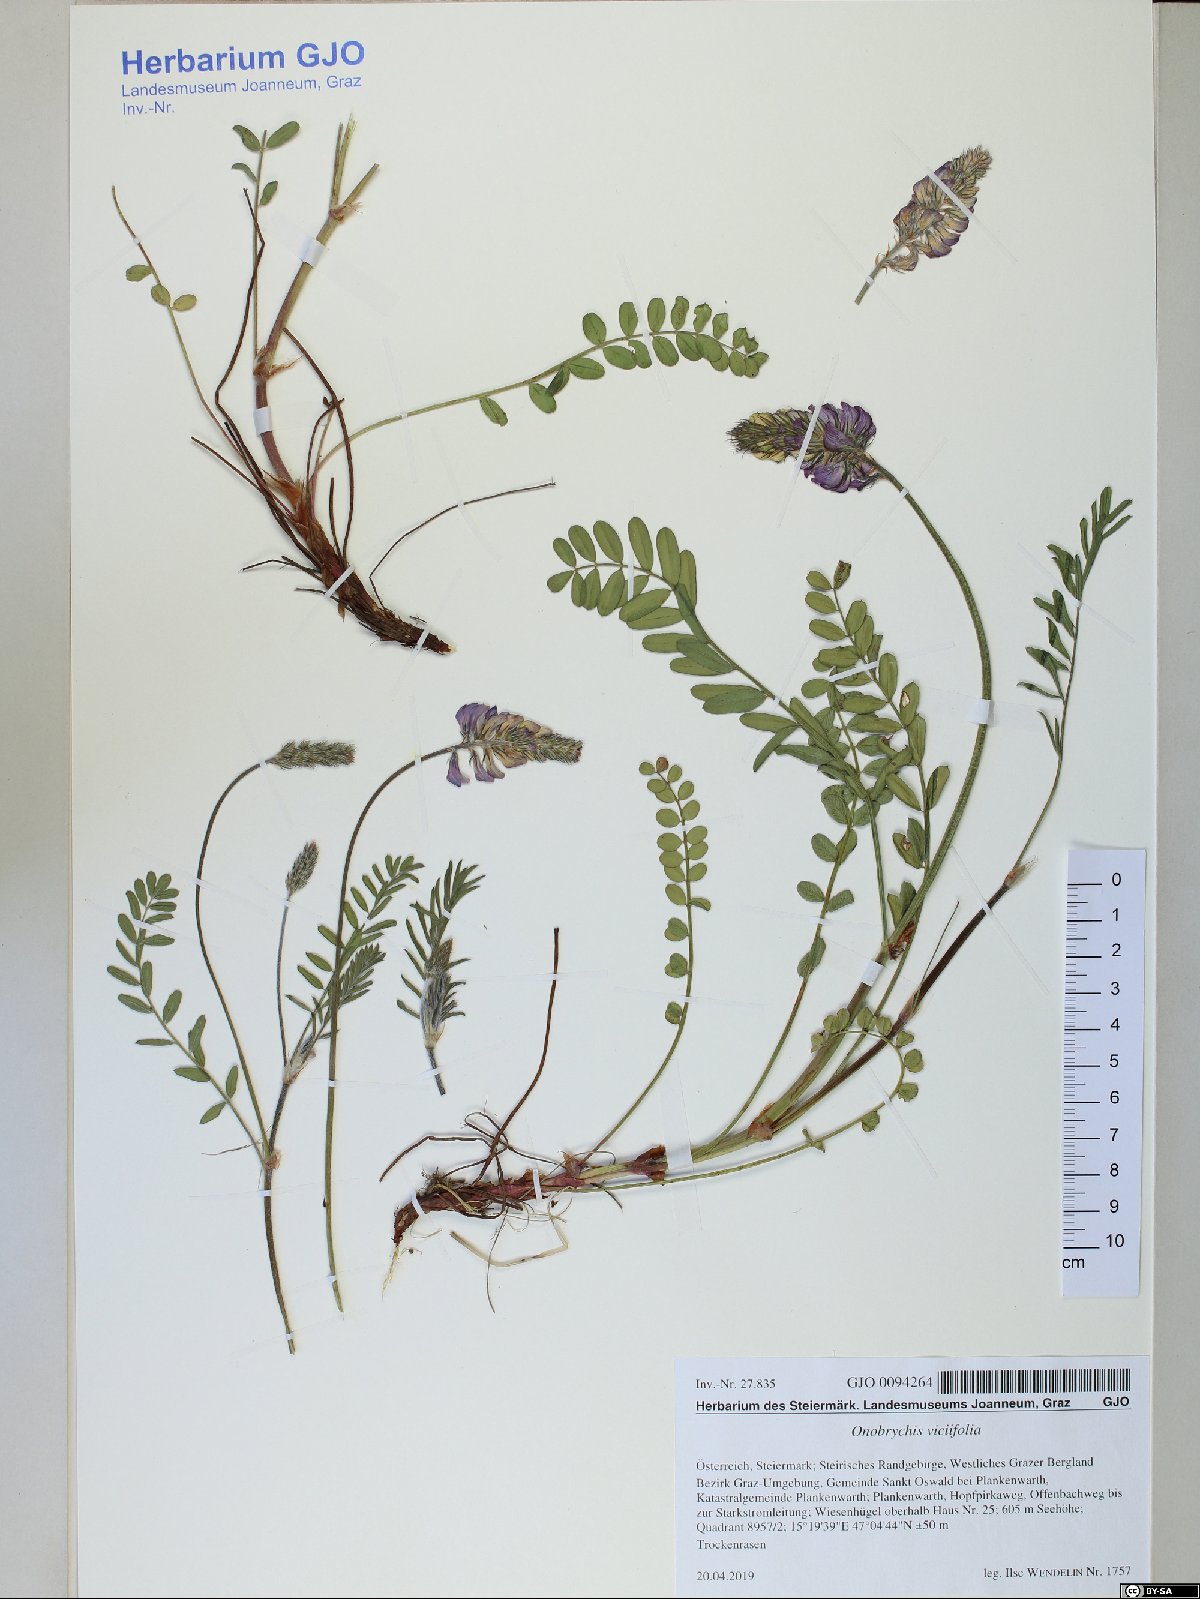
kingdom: Plantae
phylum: Tracheophyta
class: Magnoliopsida
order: Fabales
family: Fabaceae
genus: Onobrychis
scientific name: Onobrychis viciifolia
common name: Sainfoin
